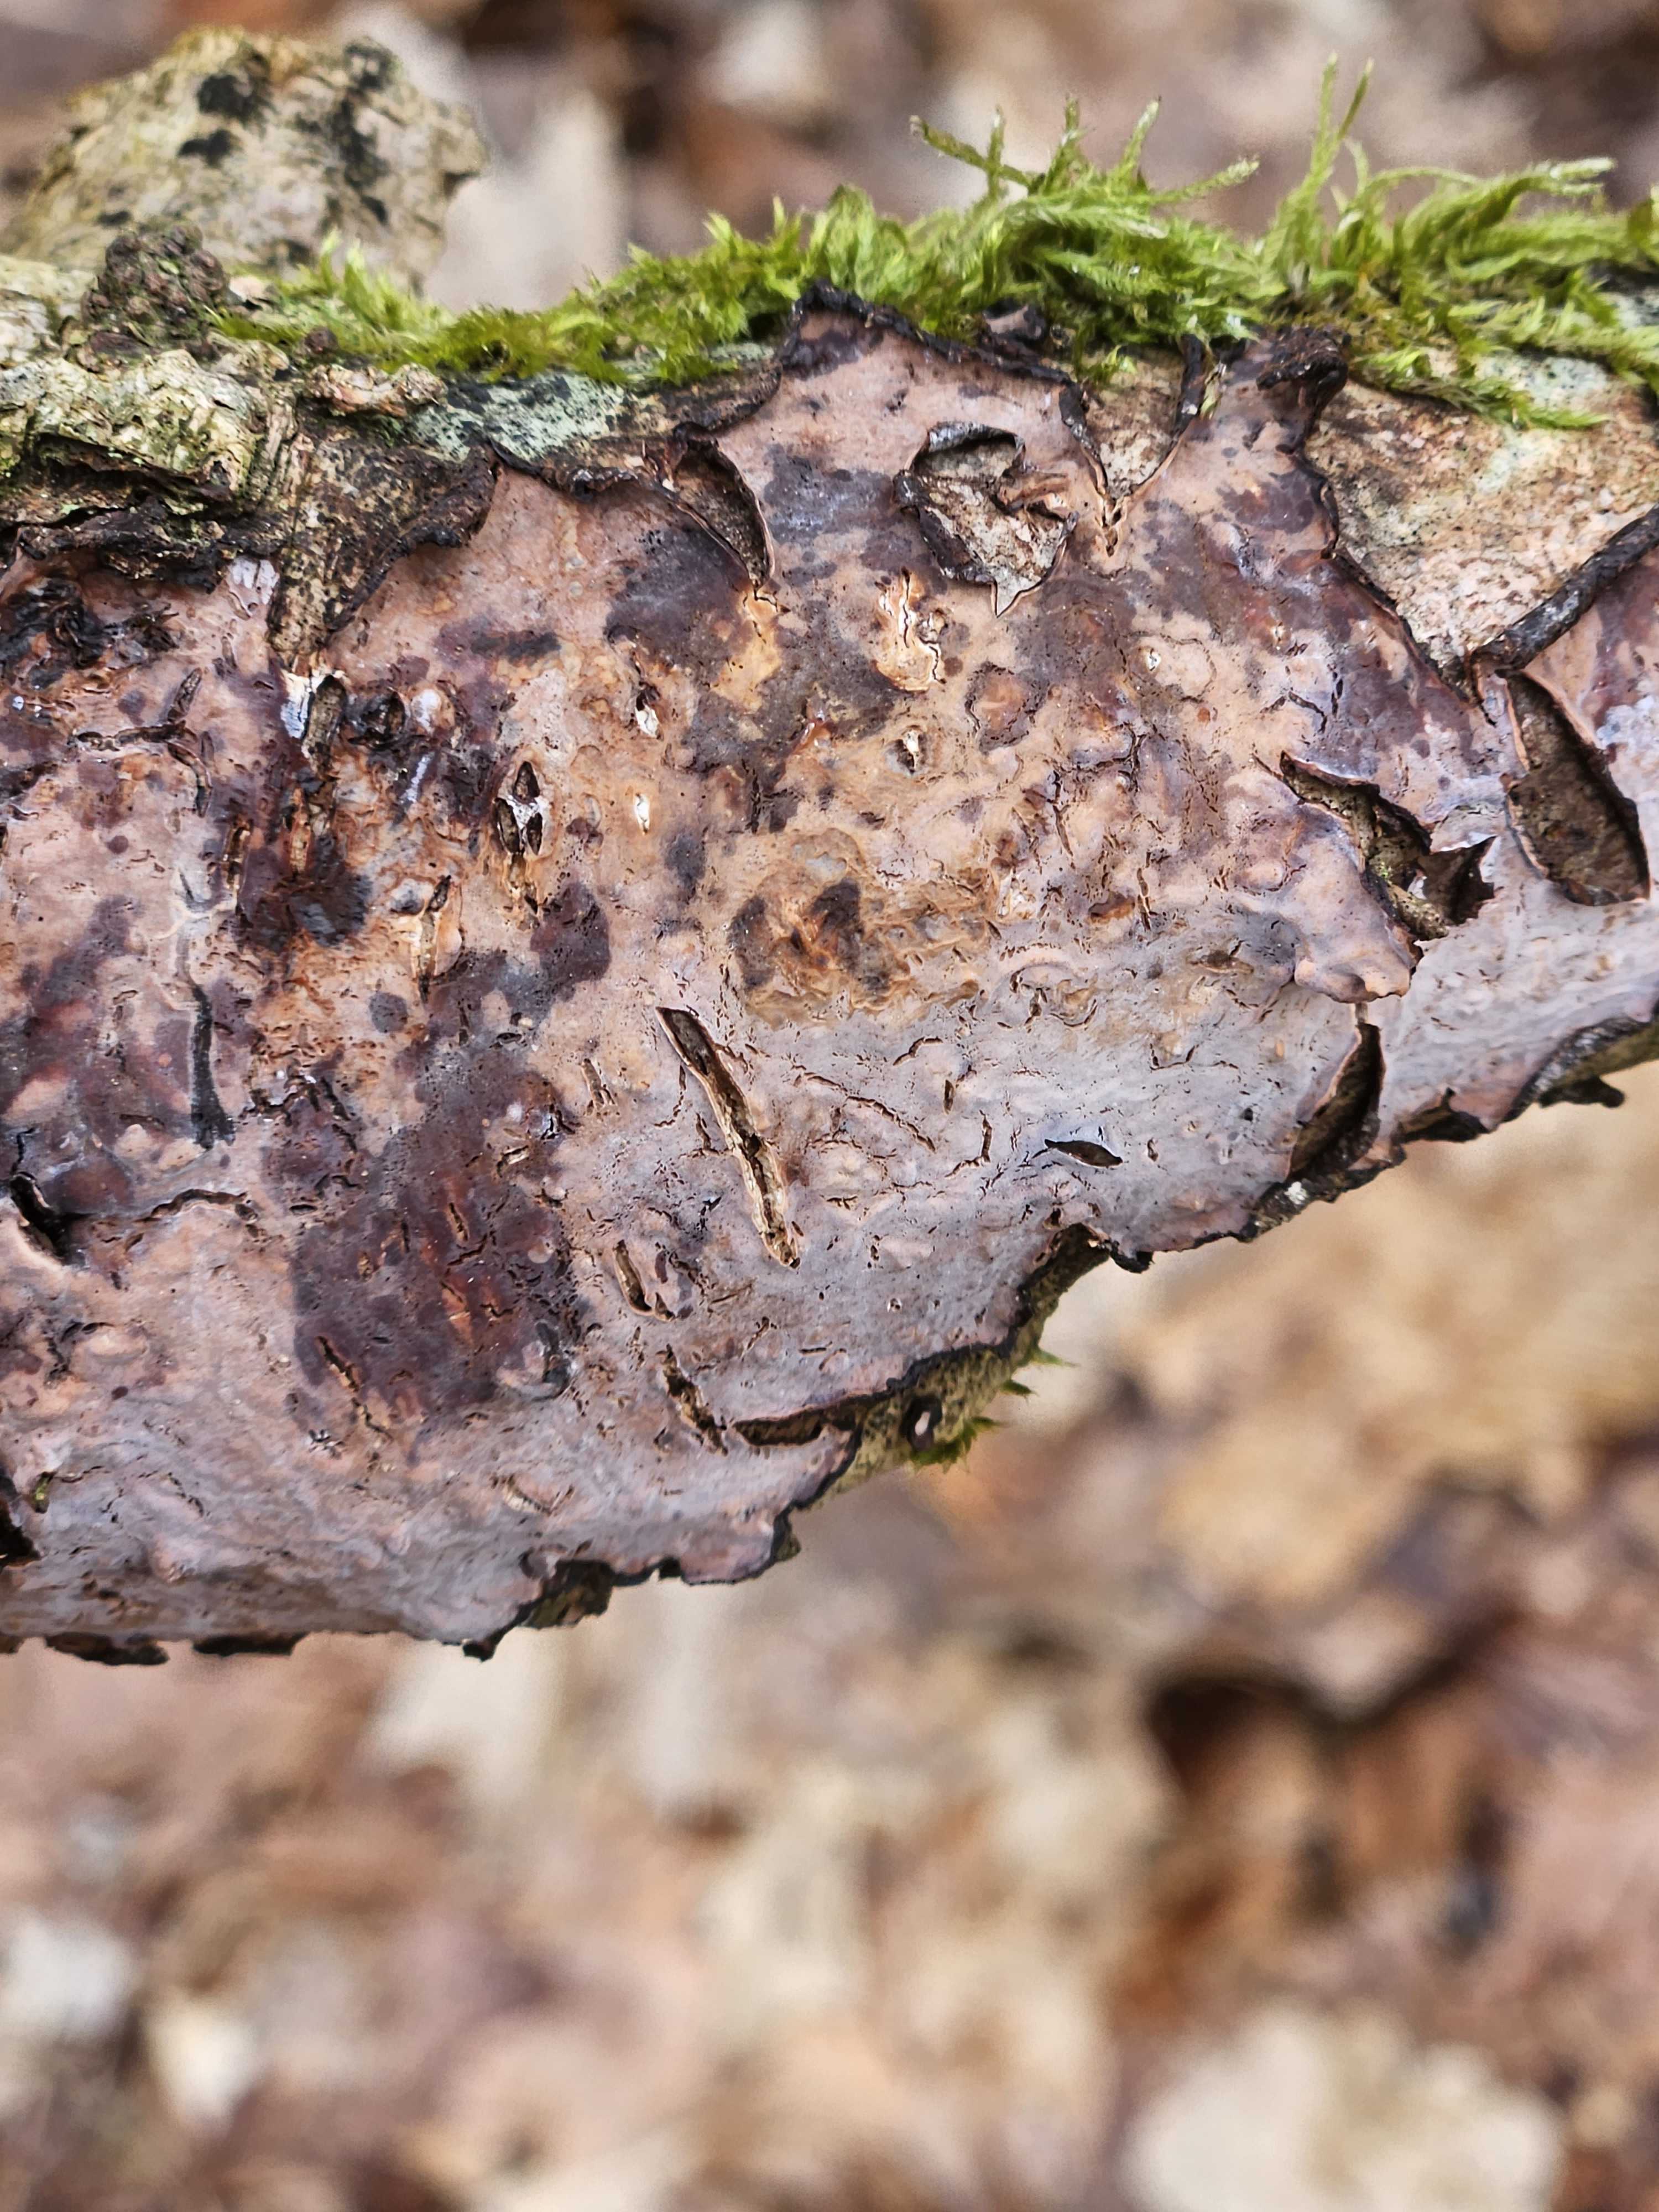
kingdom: Fungi
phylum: Basidiomycota
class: Agaricomycetes
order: Russulales
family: Peniophoraceae
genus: Peniophora
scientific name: Peniophora quercina
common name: ege-voksskind
